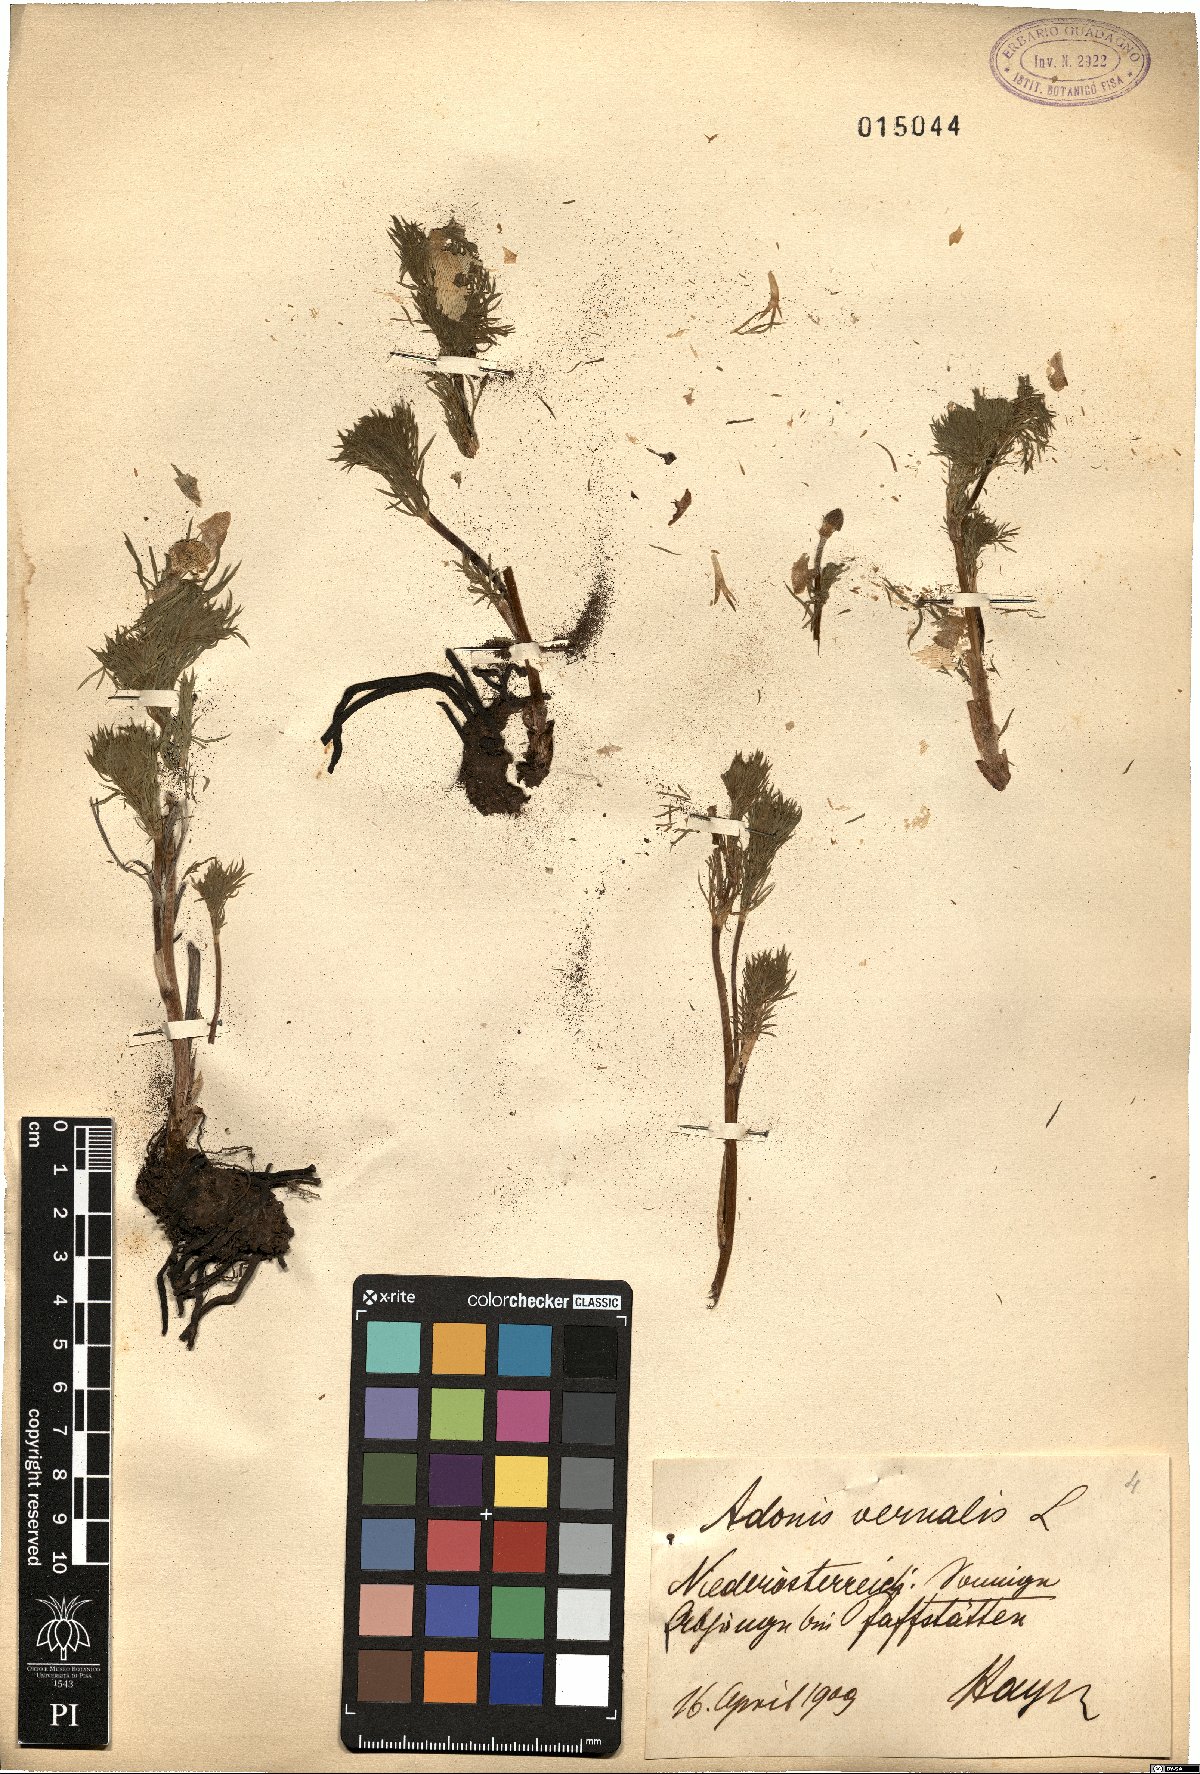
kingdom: Plantae
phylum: Tracheophyta
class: Magnoliopsida
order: Ranunculales
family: Ranunculaceae
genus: Adonis
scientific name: Adonis vernalis
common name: Yellow pheasants-eye
